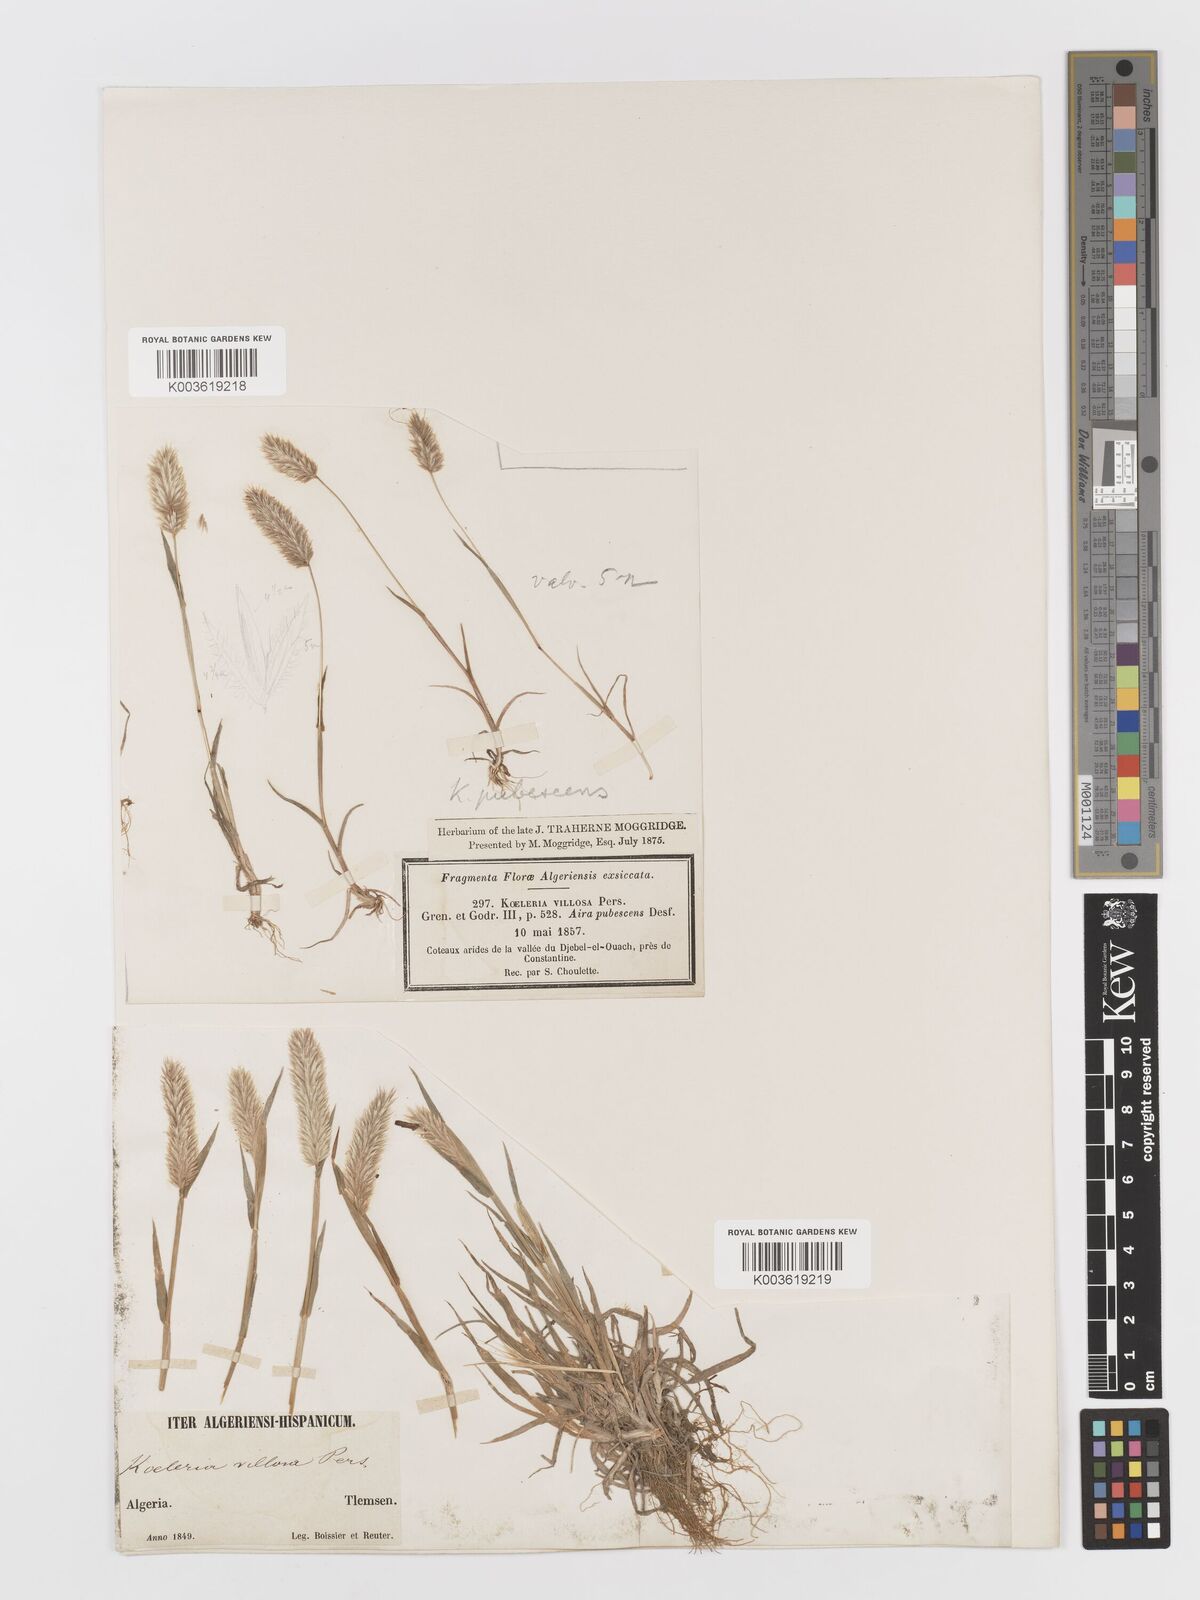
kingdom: Plantae
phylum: Tracheophyta
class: Liliopsida
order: Poales
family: Poaceae
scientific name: Poaceae
